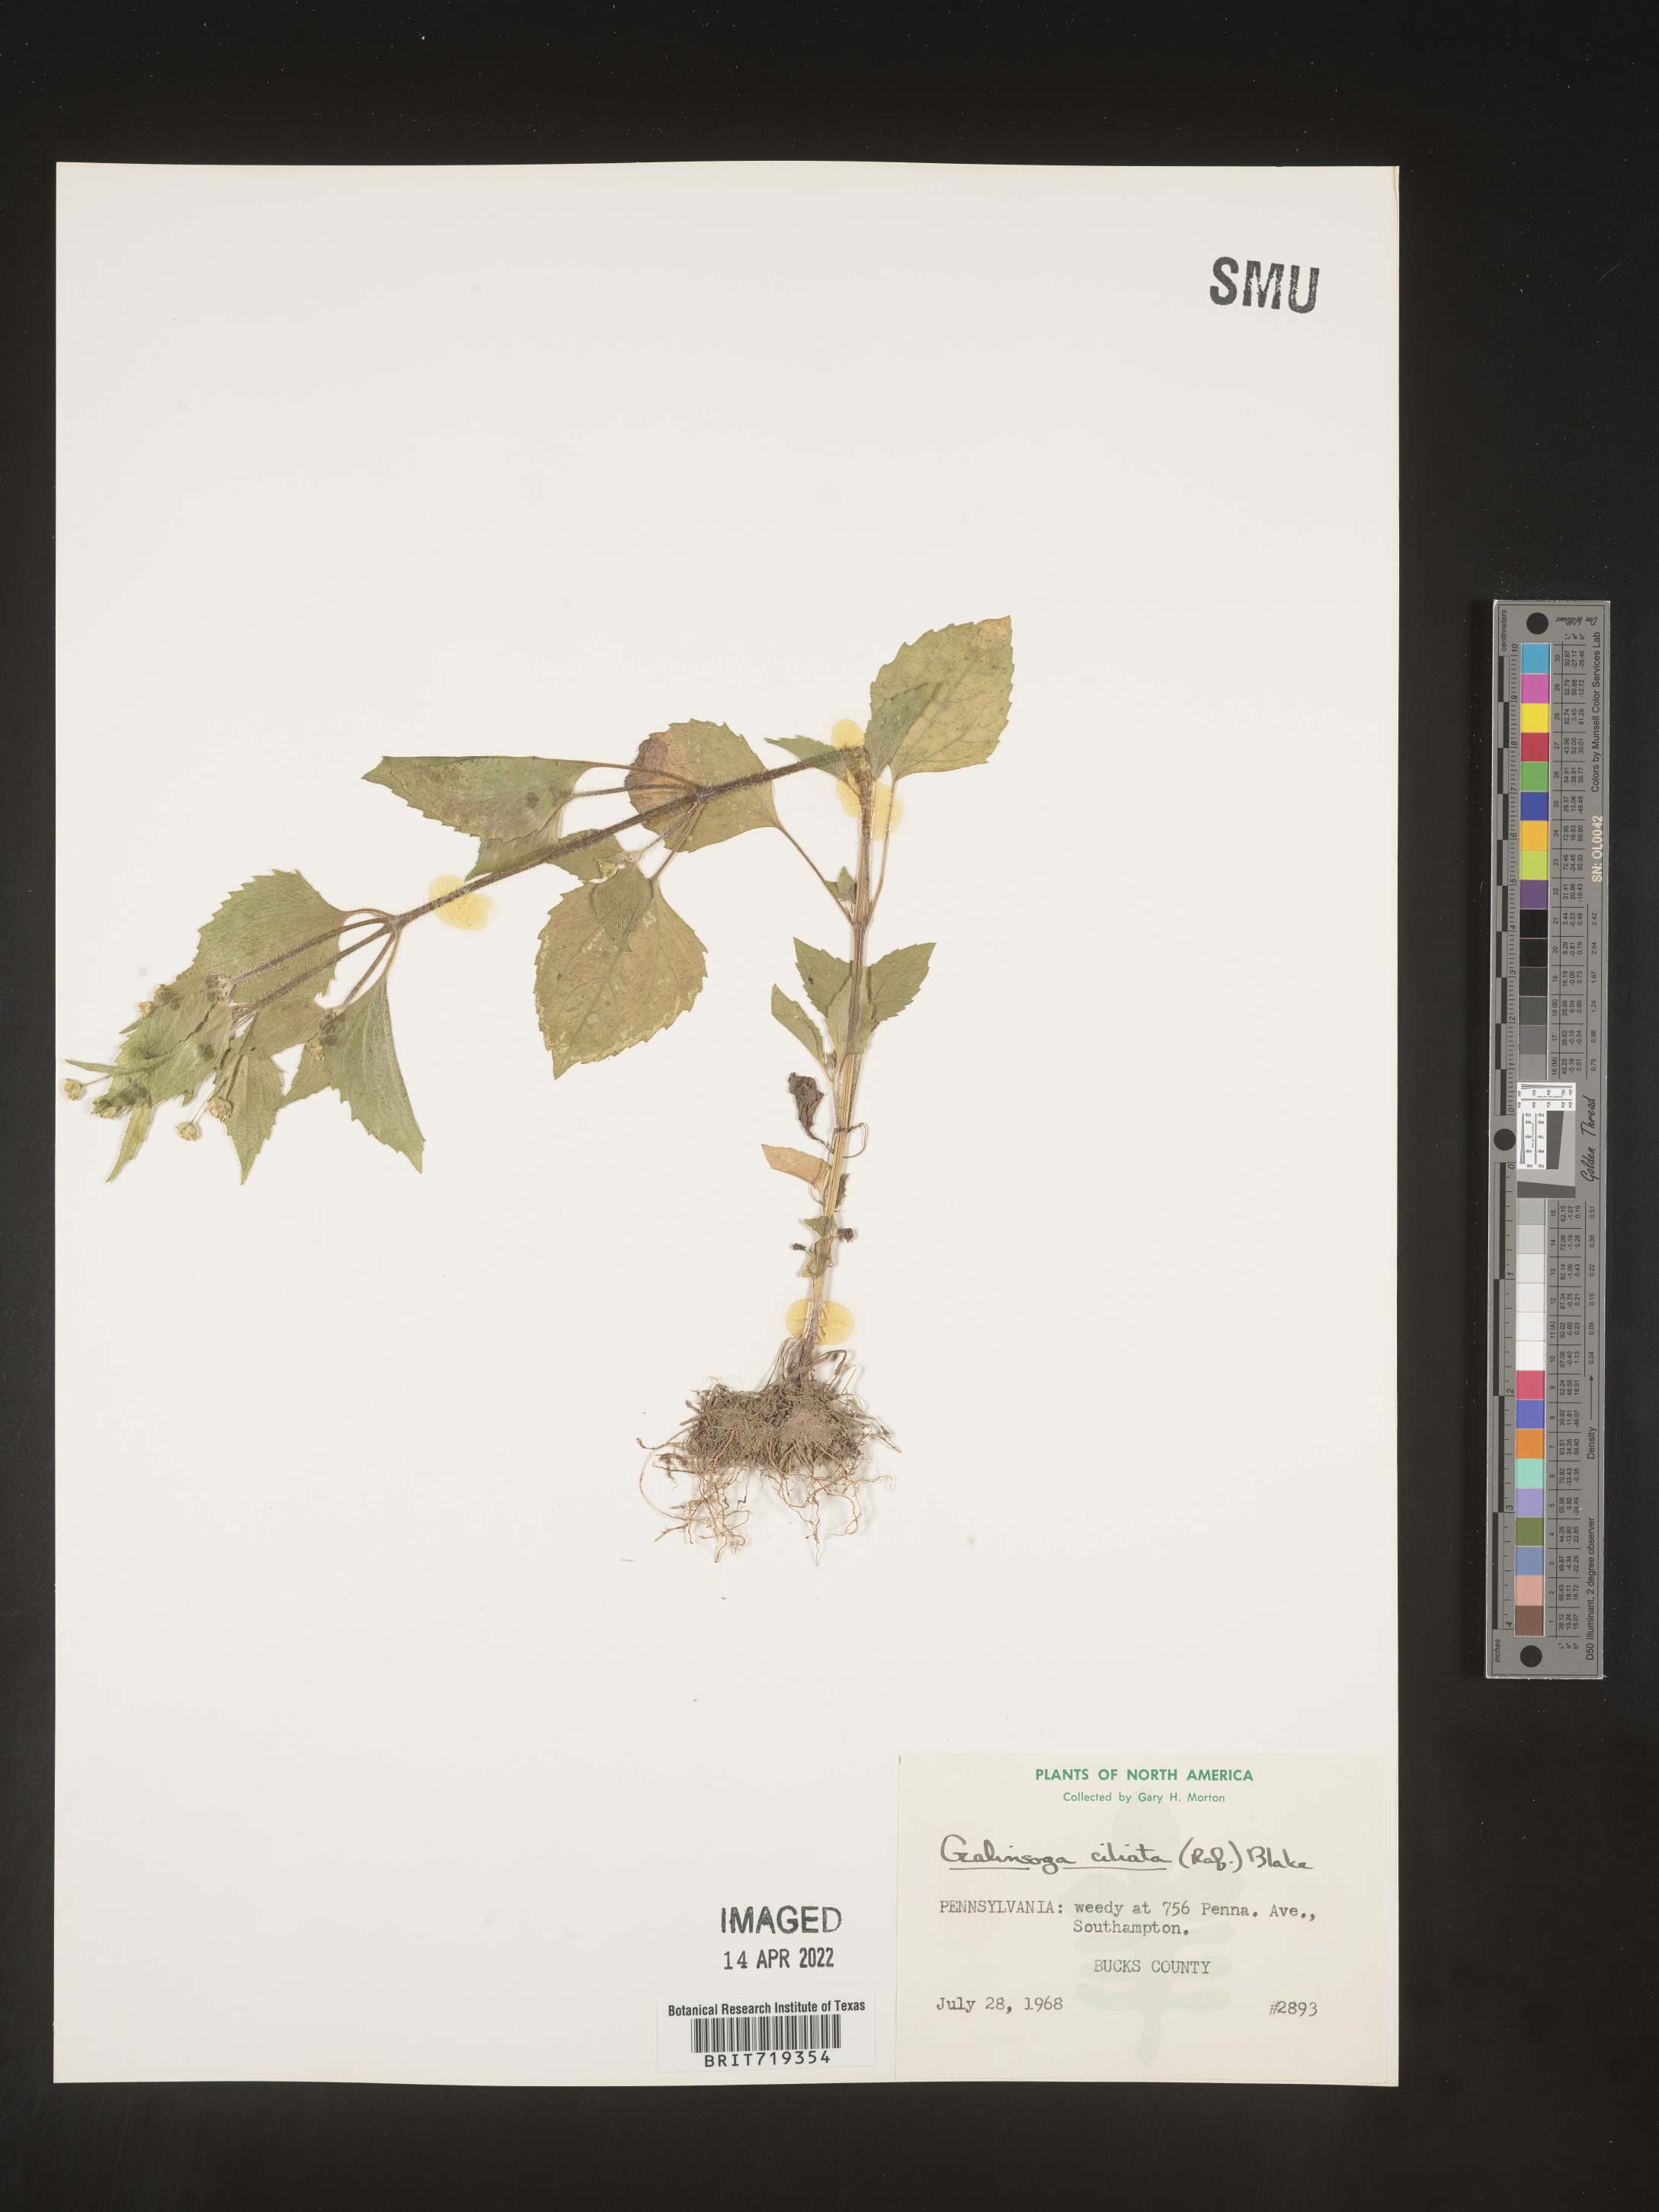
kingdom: Plantae
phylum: Tracheophyta
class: Magnoliopsida
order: Asterales
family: Asteraceae
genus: Galinsoga
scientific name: Galinsoga quadriradiata
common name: Shaggy soldier
